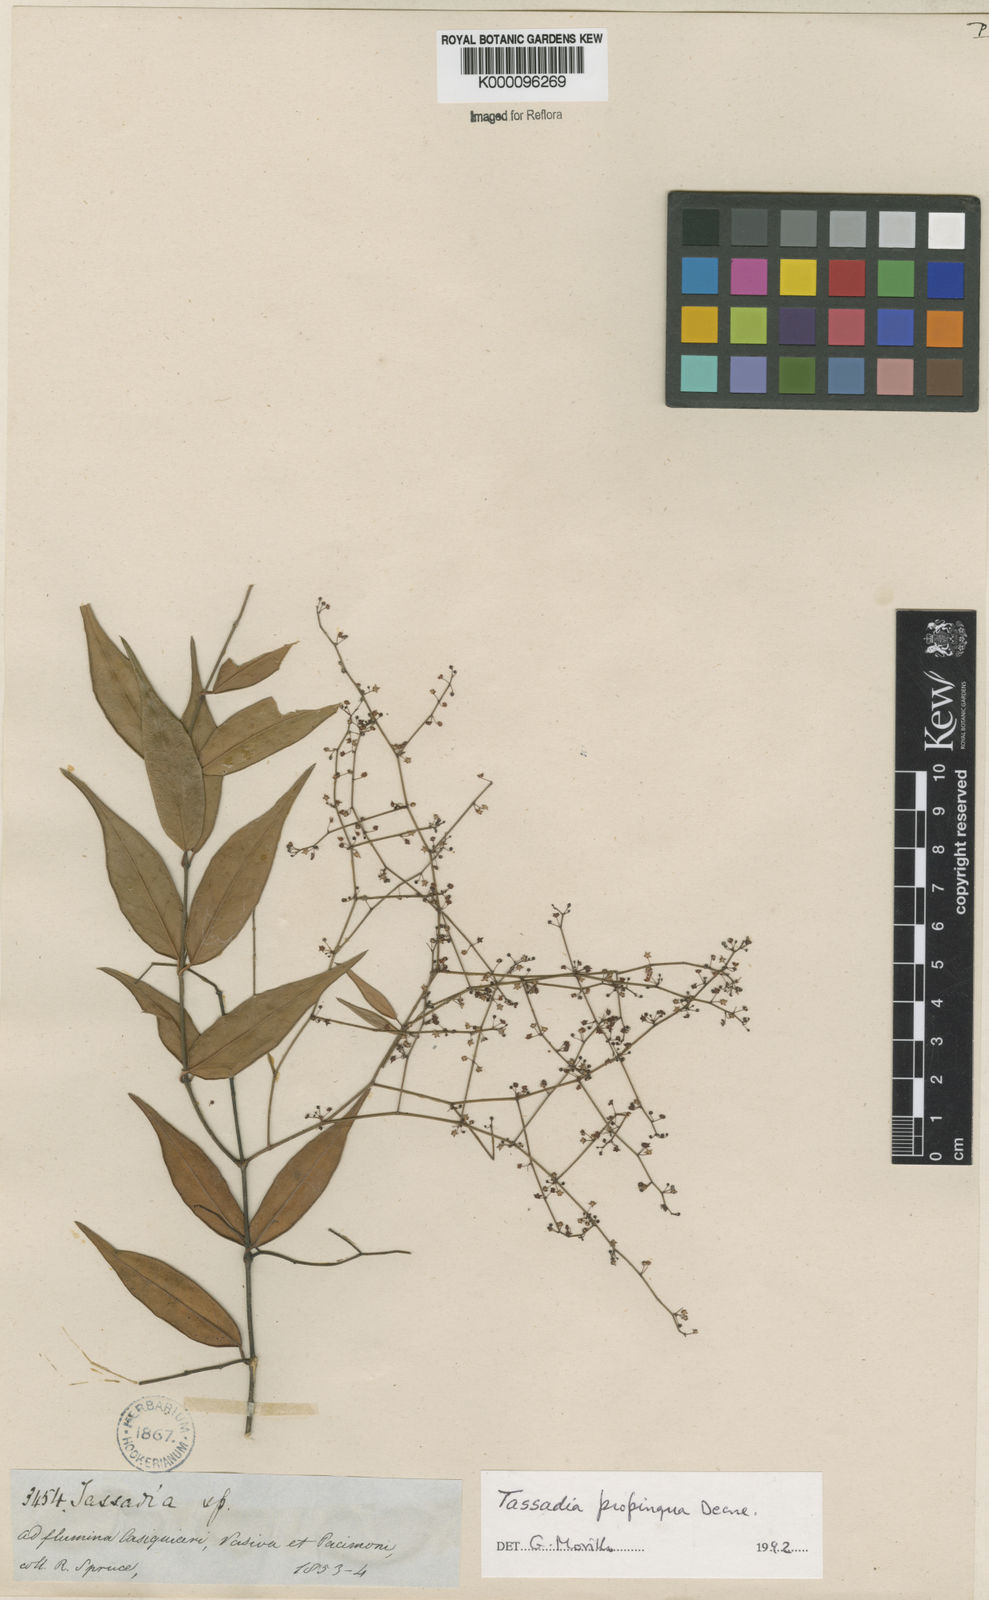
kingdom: Plantae
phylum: Tracheophyta
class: Magnoliopsida
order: Gentianales
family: Apocynaceae
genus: Tassadia
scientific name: Tassadia propinqua
